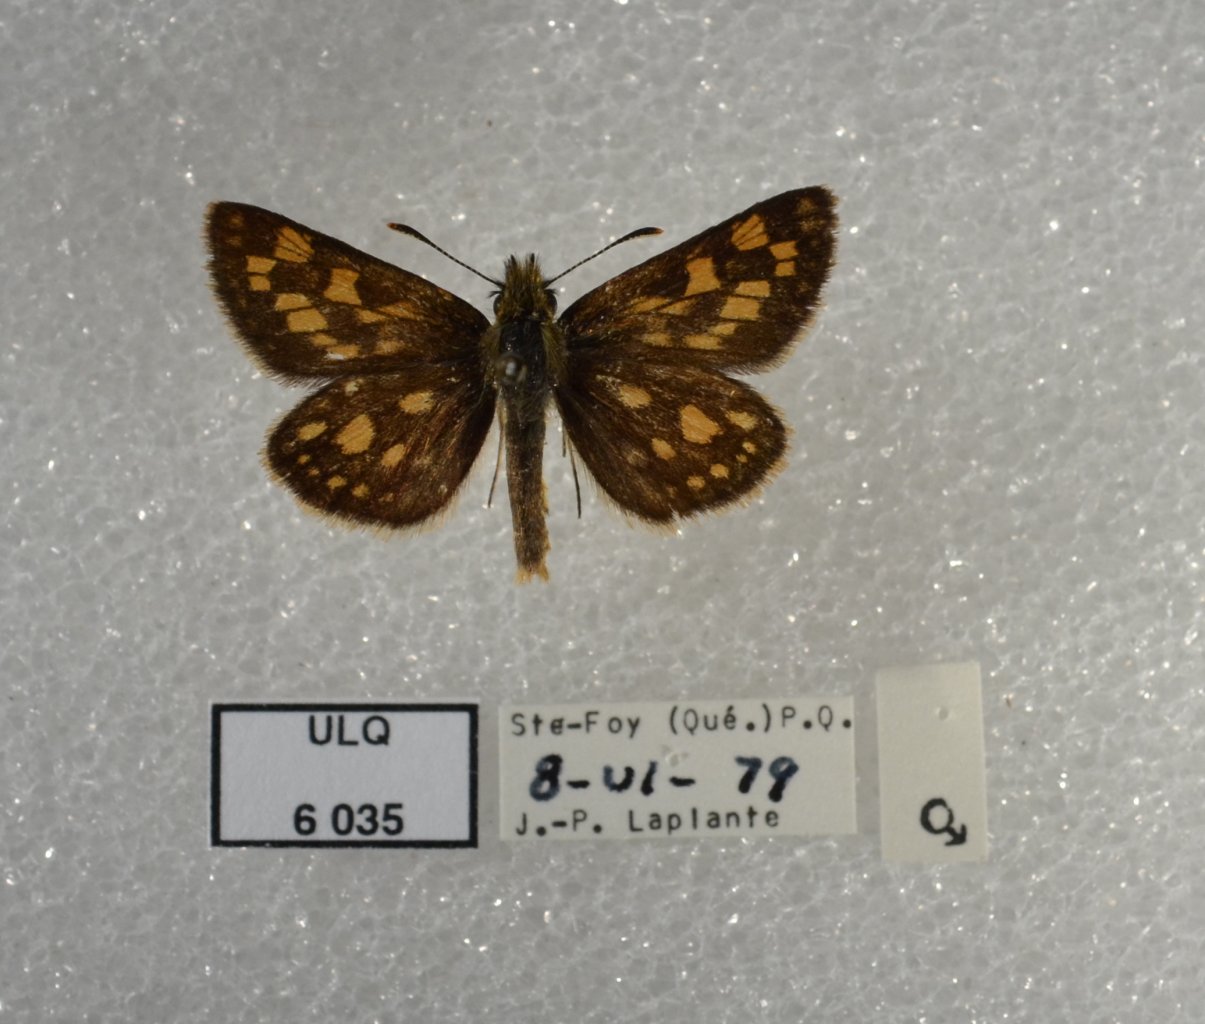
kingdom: Animalia
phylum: Arthropoda
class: Insecta
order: Lepidoptera
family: Hesperiidae
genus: Carterocephalus
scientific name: Carterocephalus palaemon
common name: Chequered Skipper
